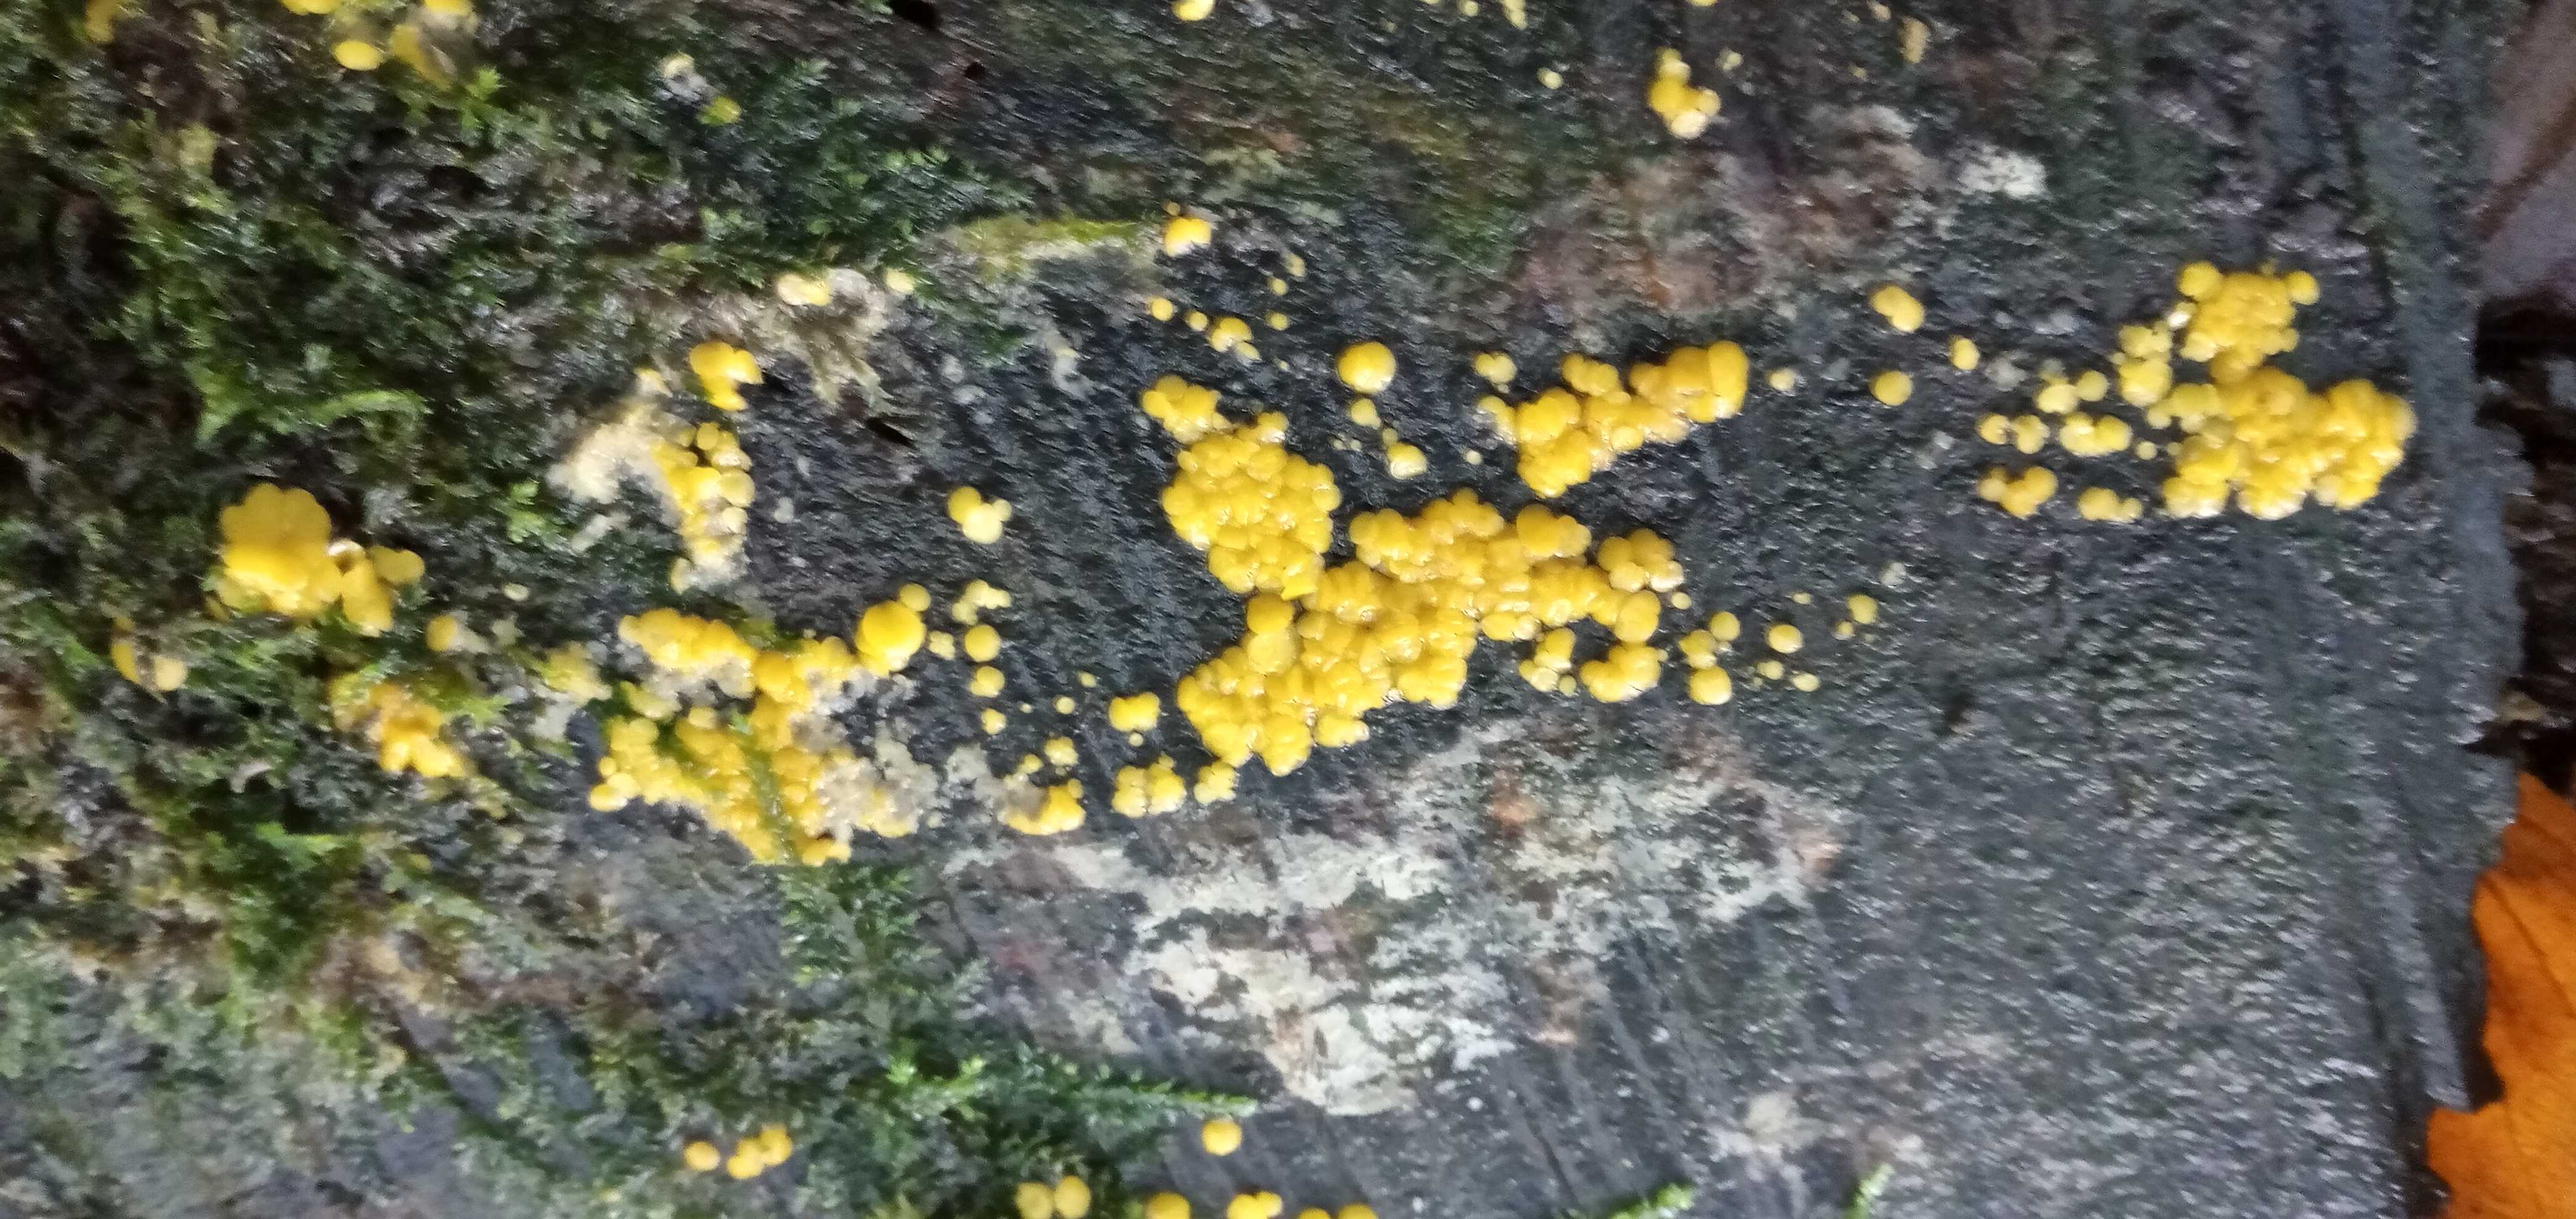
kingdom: Fungi
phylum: Ascomycota
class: Leotiomycetes
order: Helotiales
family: Pezizellaceae
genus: Calycina
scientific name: Calycina
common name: gulskive
